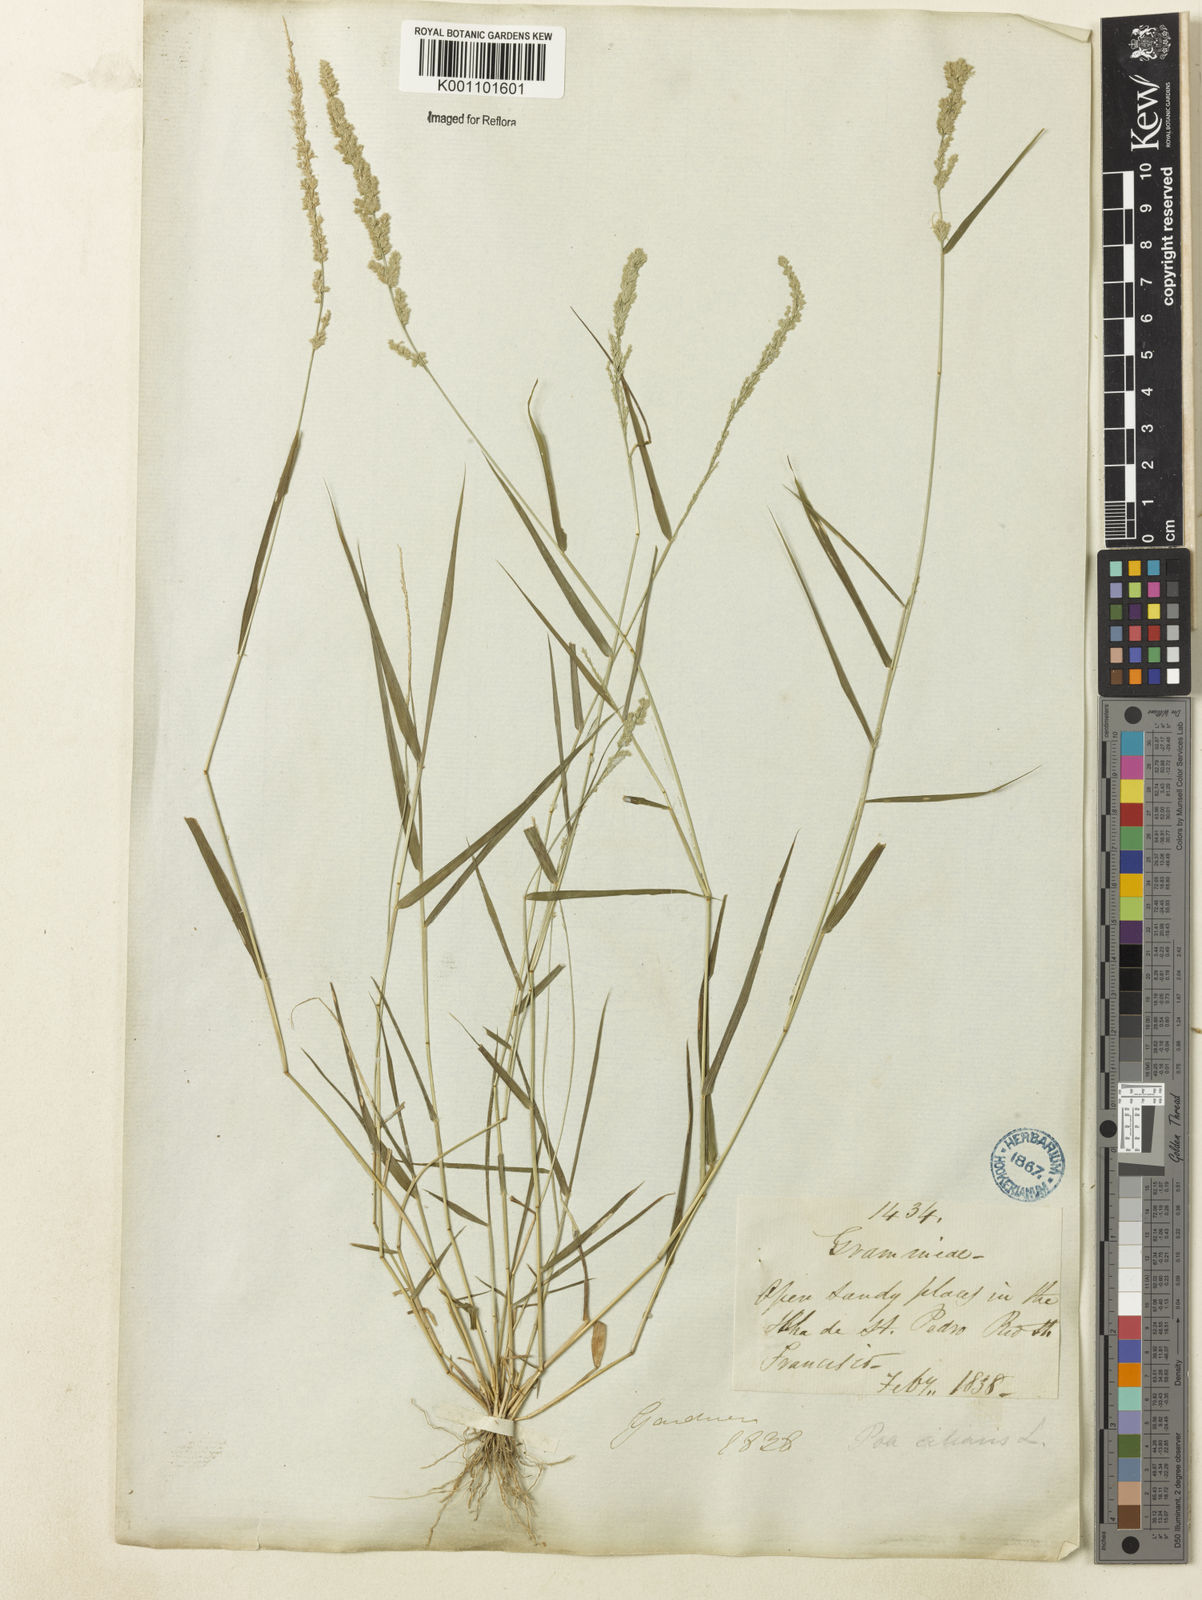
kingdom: Plantae
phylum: Tracheophyta
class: Liliopsida
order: Poales
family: Poaceae
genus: Eragrostis
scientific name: Eragrostis ciliaris
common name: Gophertail lovegrass
